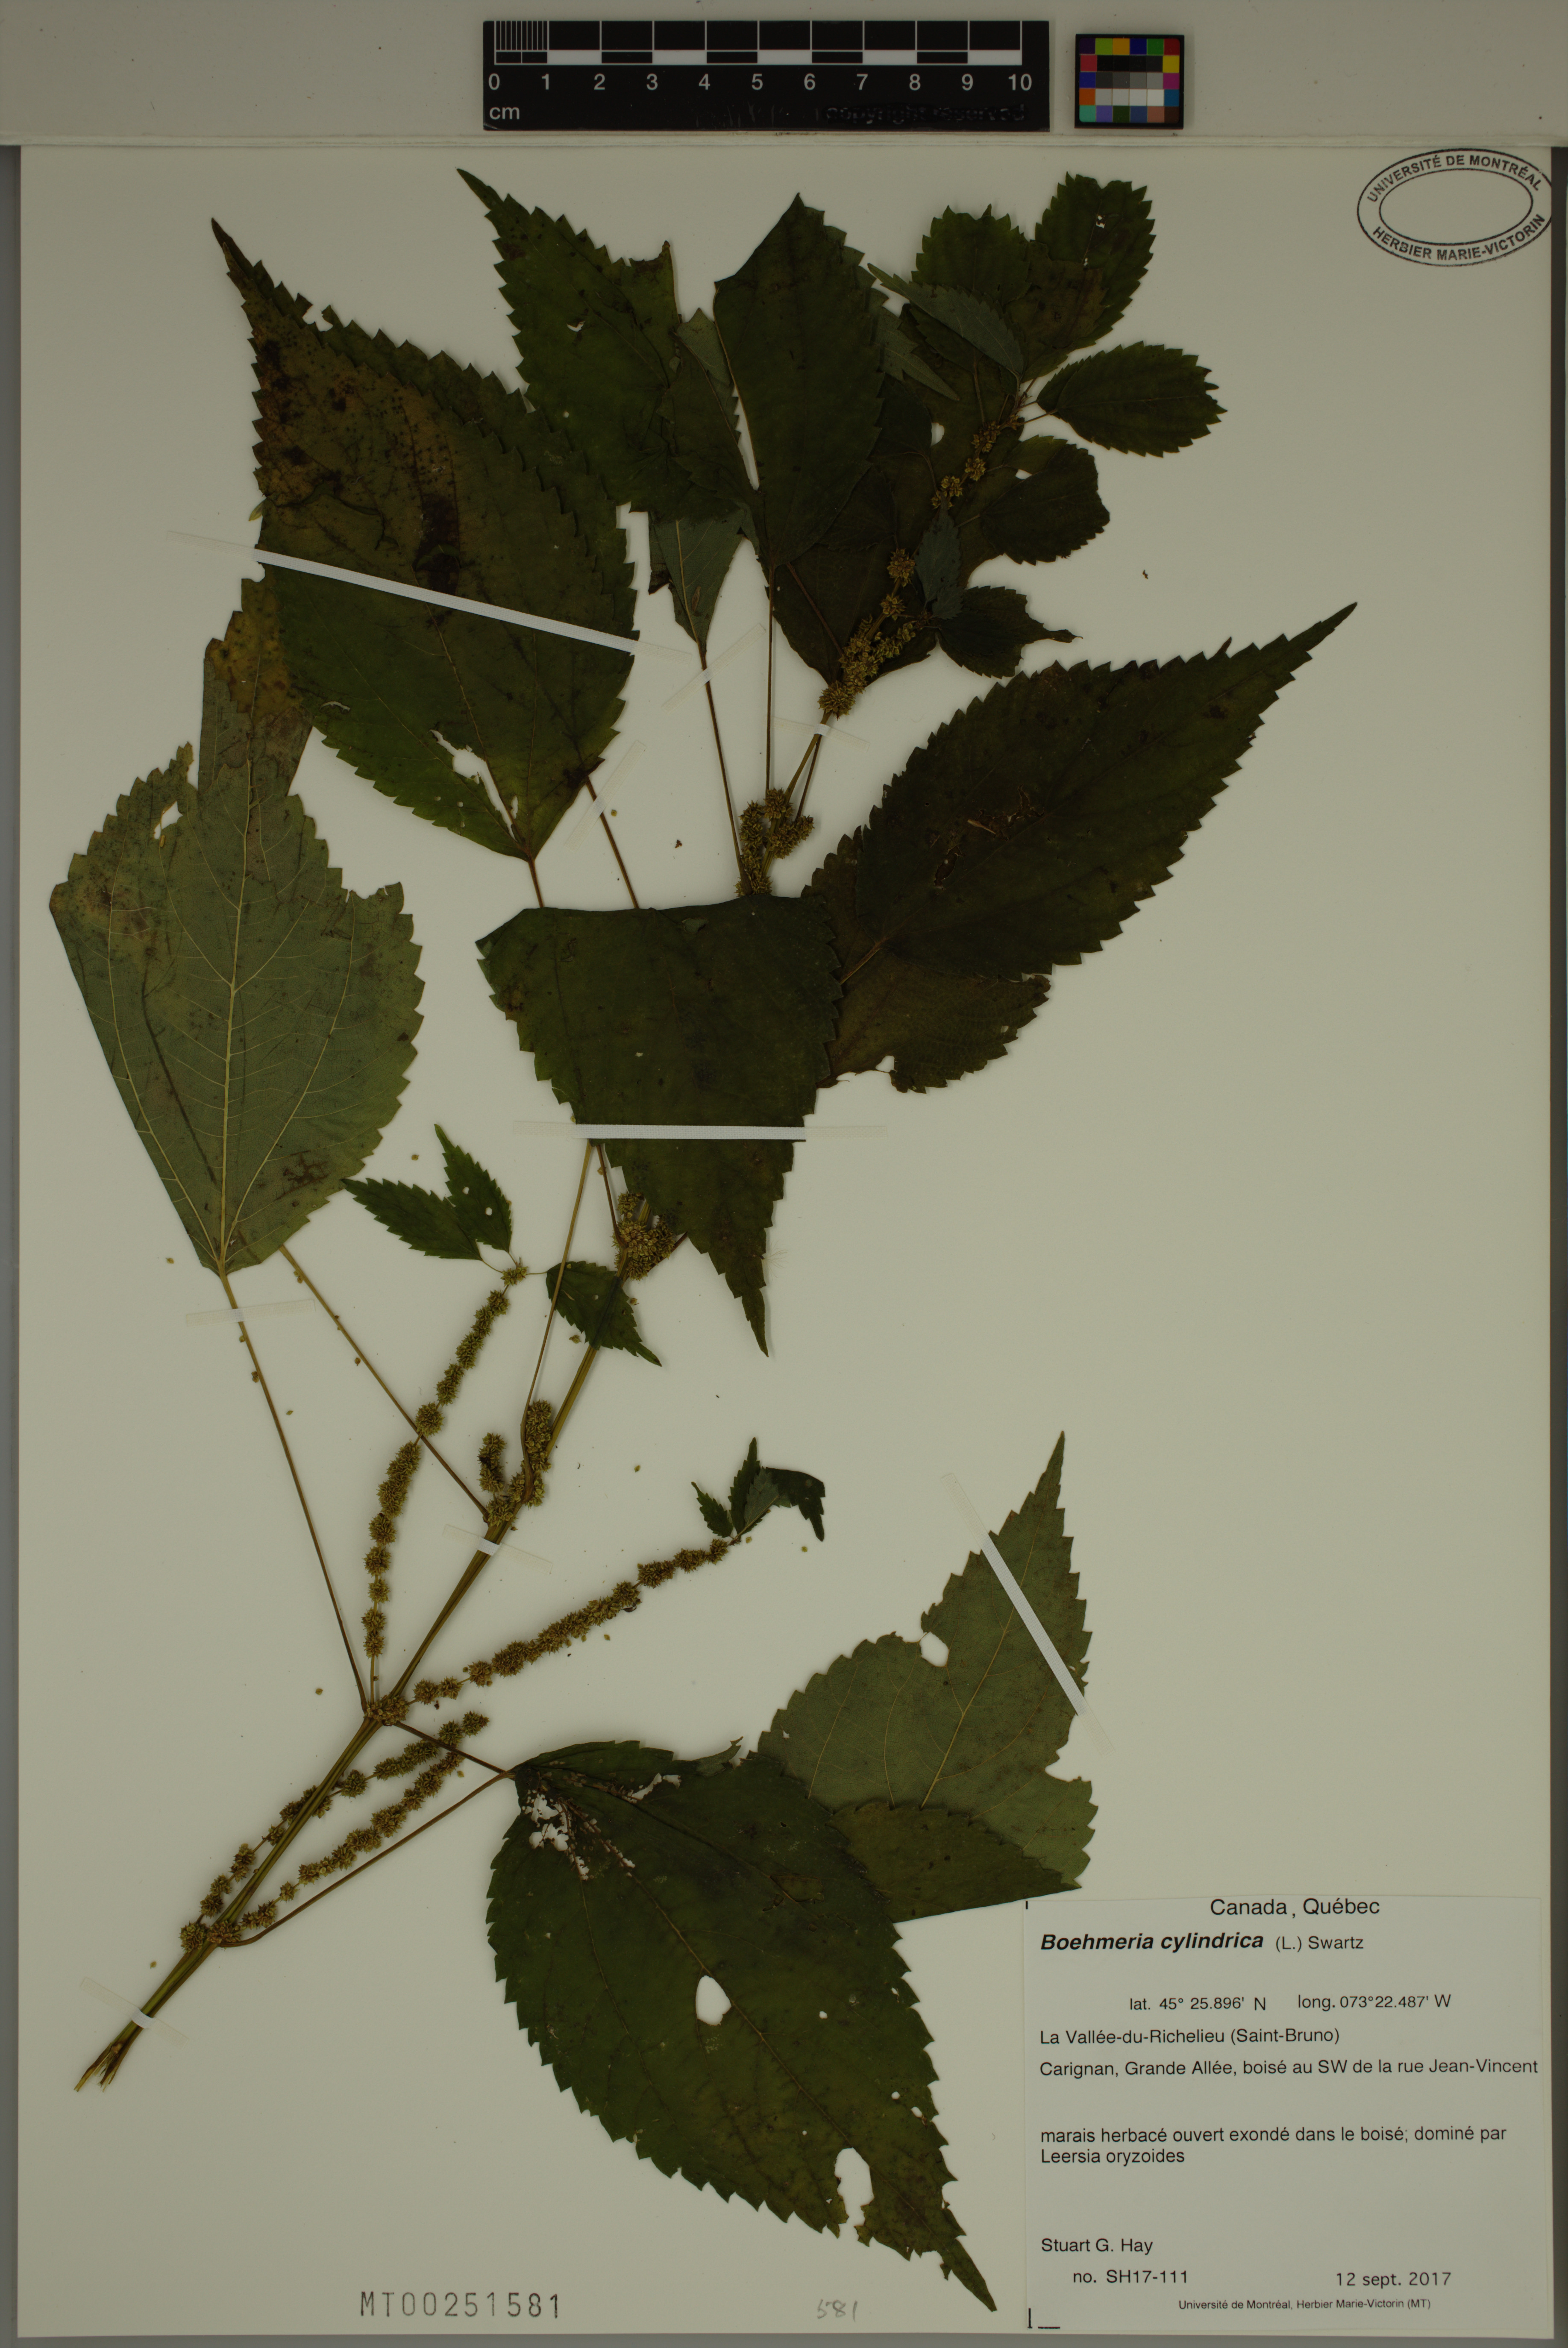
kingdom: Plantae
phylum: Tracheophyta
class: Magnoliopsida
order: Rosales
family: Urticaceae
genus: Boehmeria
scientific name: Boehmeria cylindrica
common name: Bog-hemp
